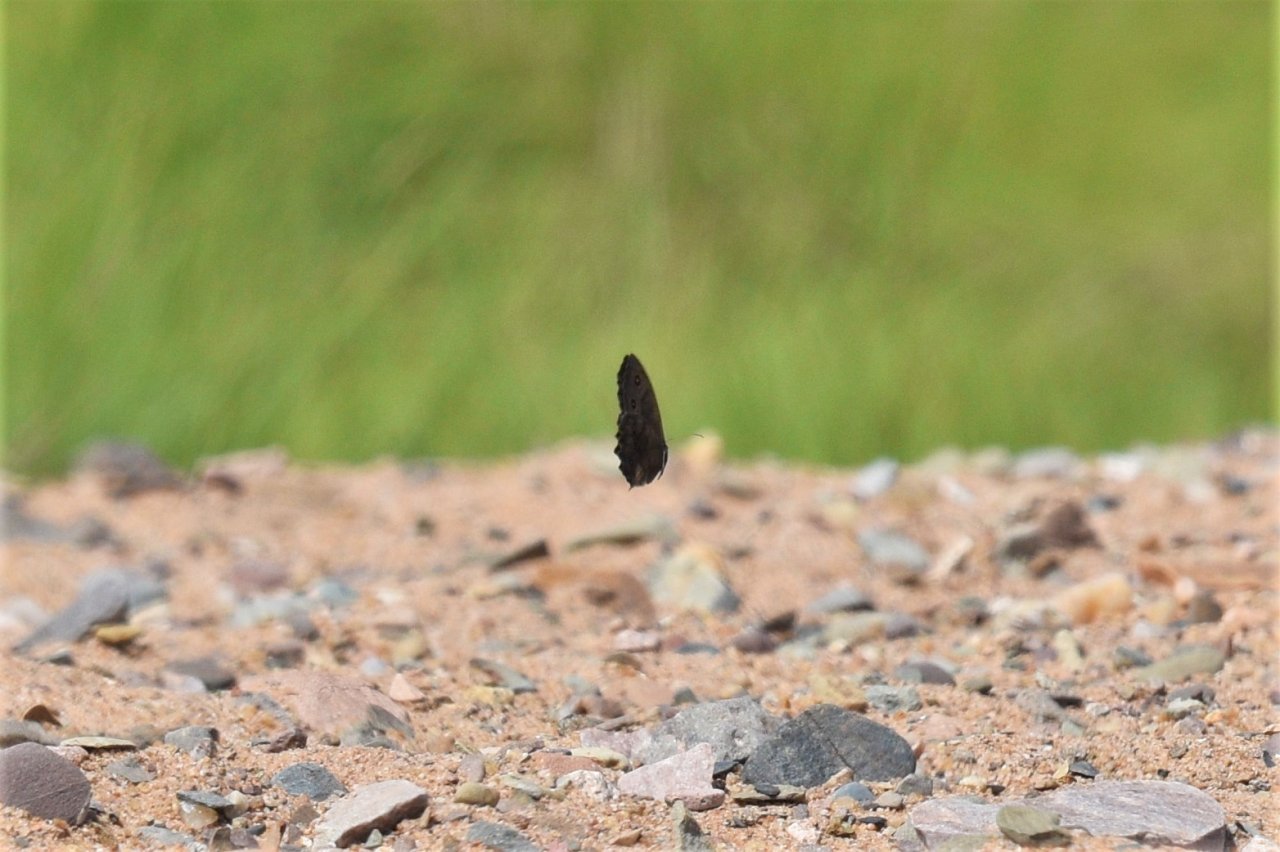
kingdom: Animalia
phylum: Arthropoda
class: Insecta
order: Lepidoptera
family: Nymphalidae
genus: Cercyonis
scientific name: Cercyonis pegala
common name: Common Wood-Nymph
